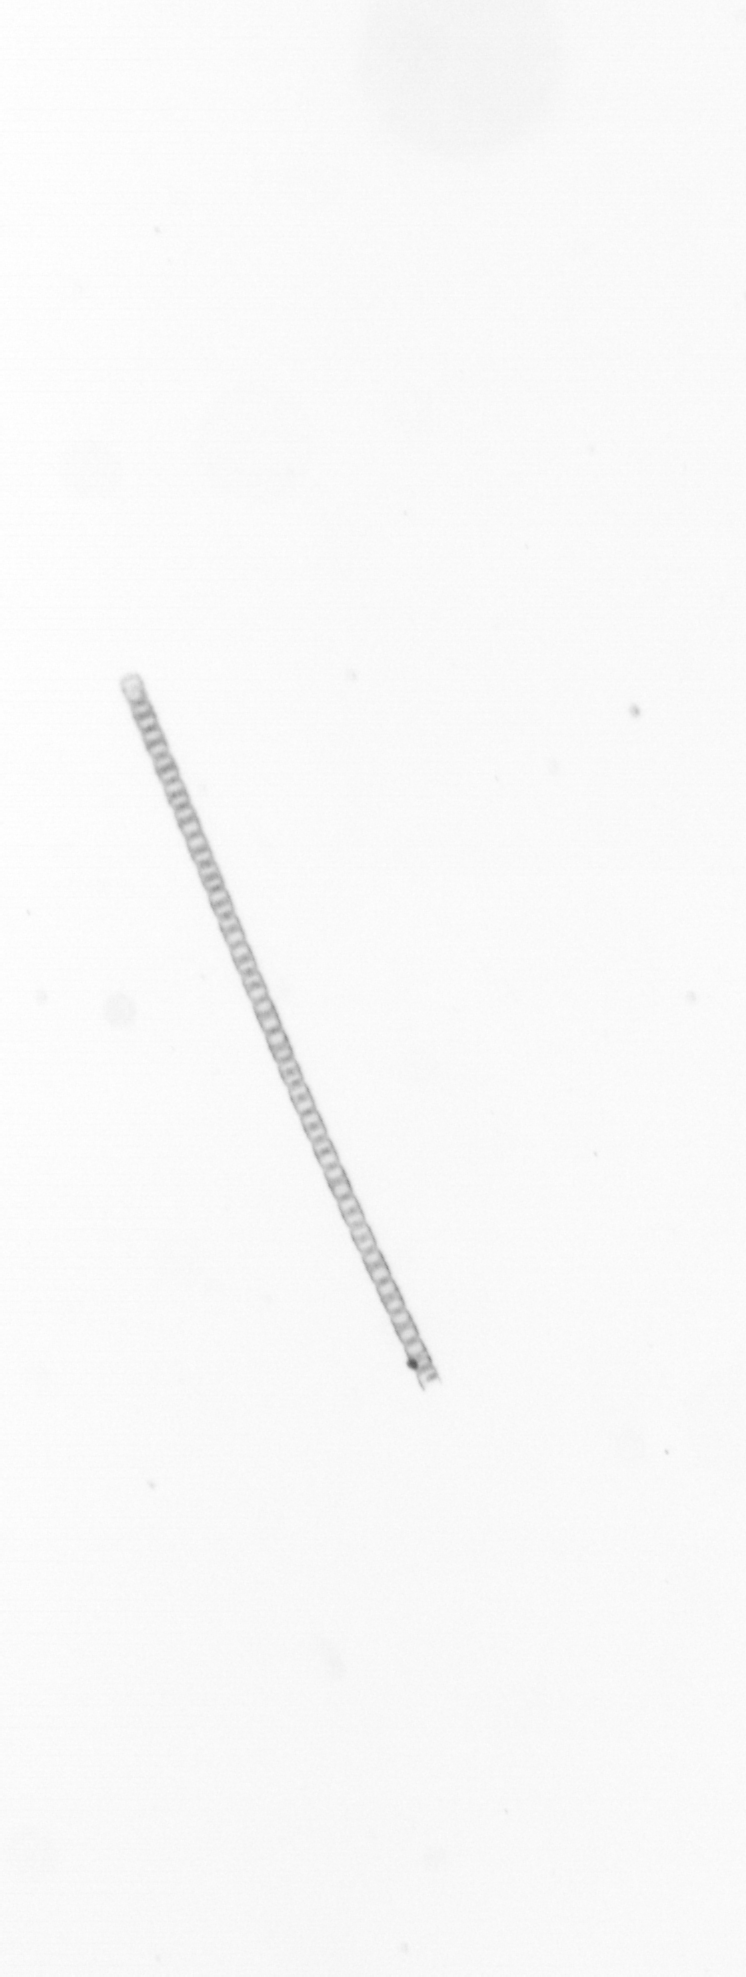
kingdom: Chromista
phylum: Ochrophyta
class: Bacillariophyceae
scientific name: Bacillariophyceae
